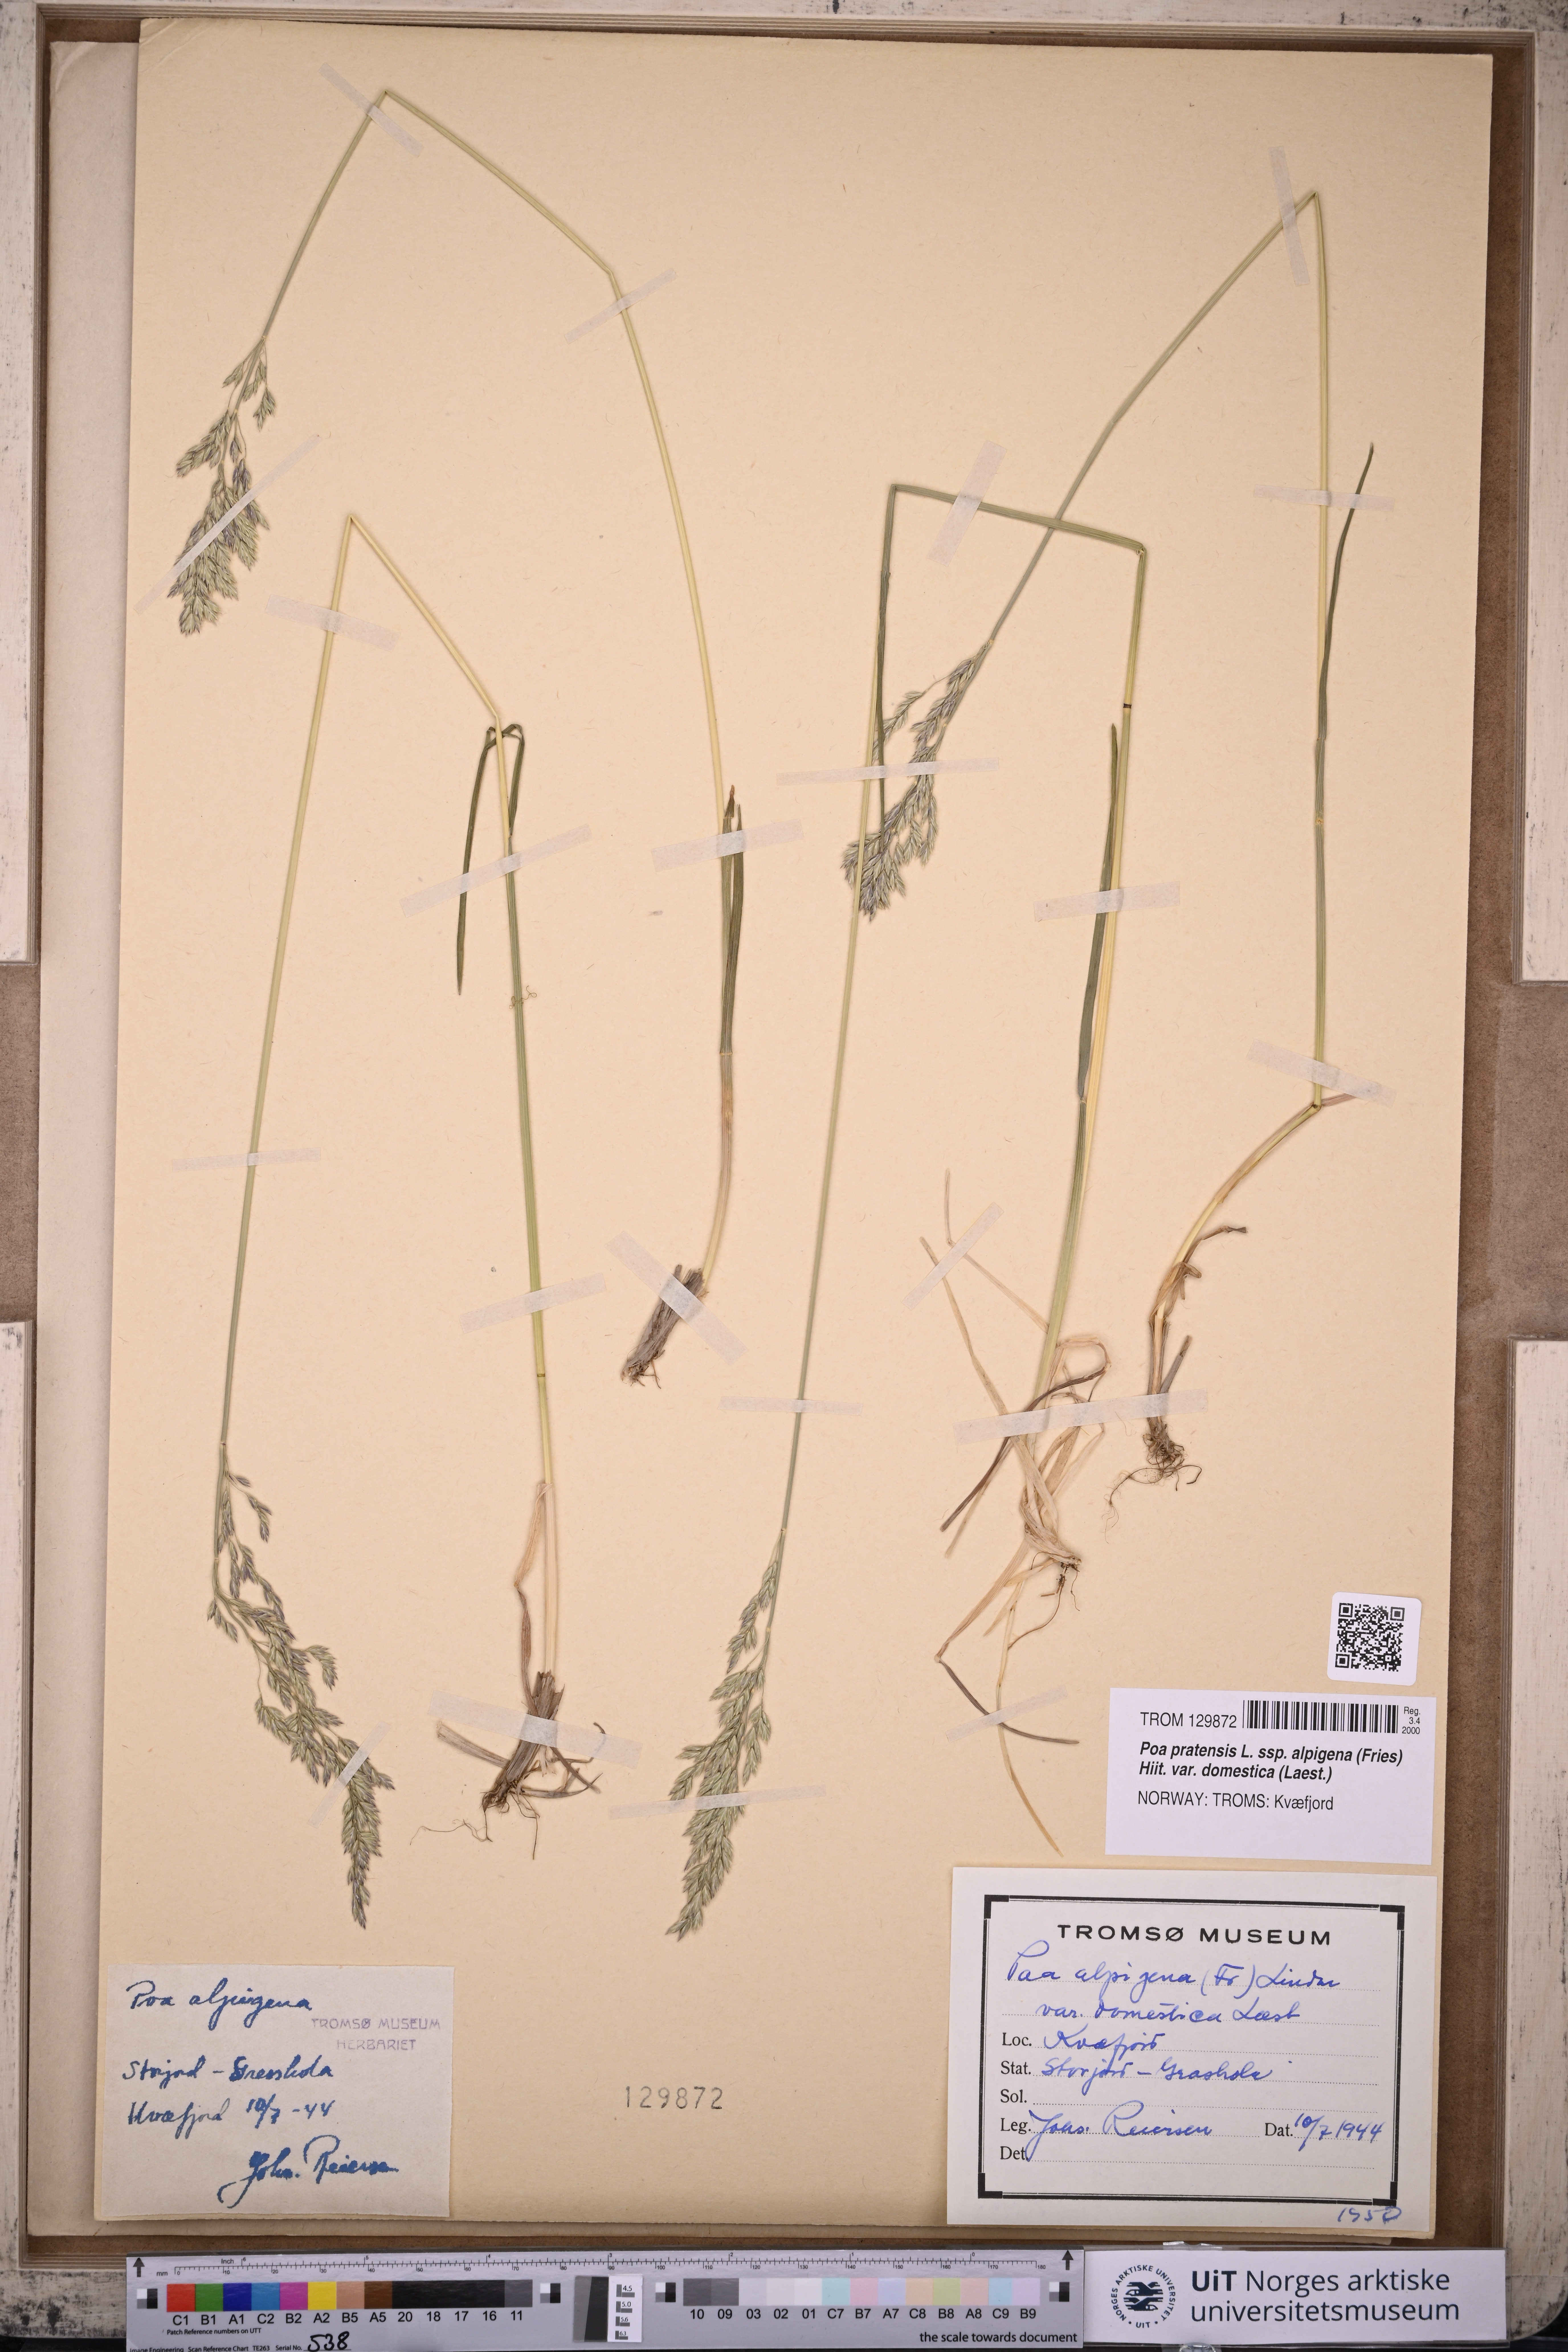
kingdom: Plantae
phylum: Tracheophyta
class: Liliopsida
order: Poales
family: Poaceae
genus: Poa
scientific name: Poa pratensis
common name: Kentucky bluegrass
